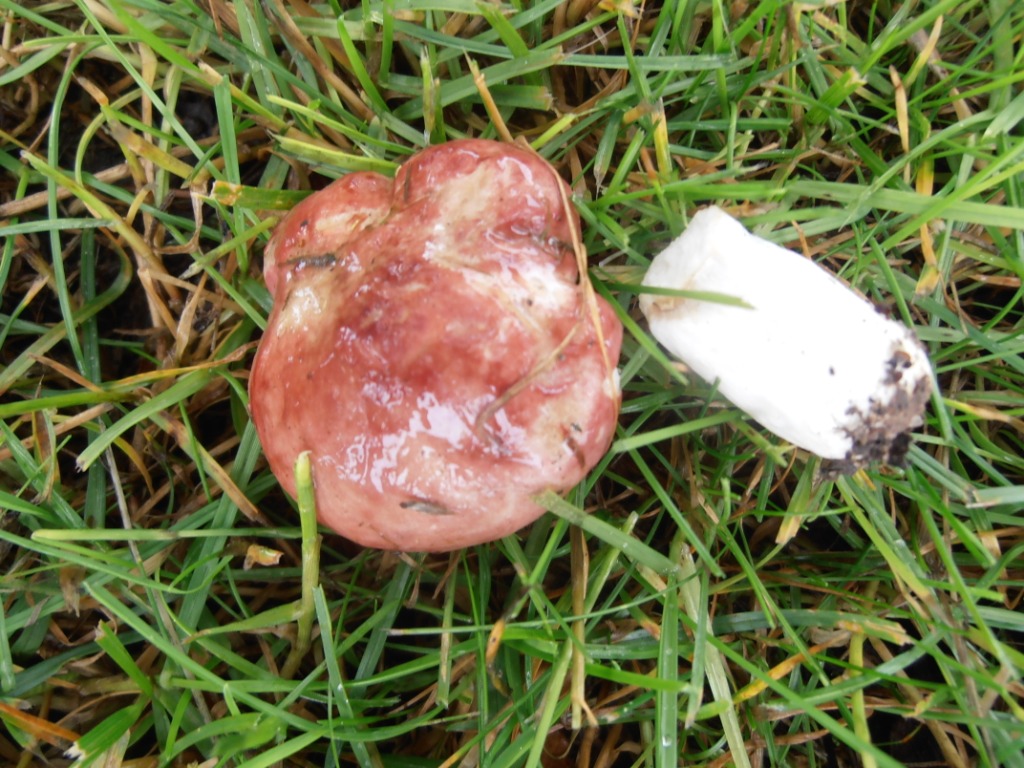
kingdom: Fungi
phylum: Basidiomycota
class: Agaricomycetes
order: Russulales
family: Russulaceae
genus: Russula
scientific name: Russula depallens
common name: falmende skørhat
